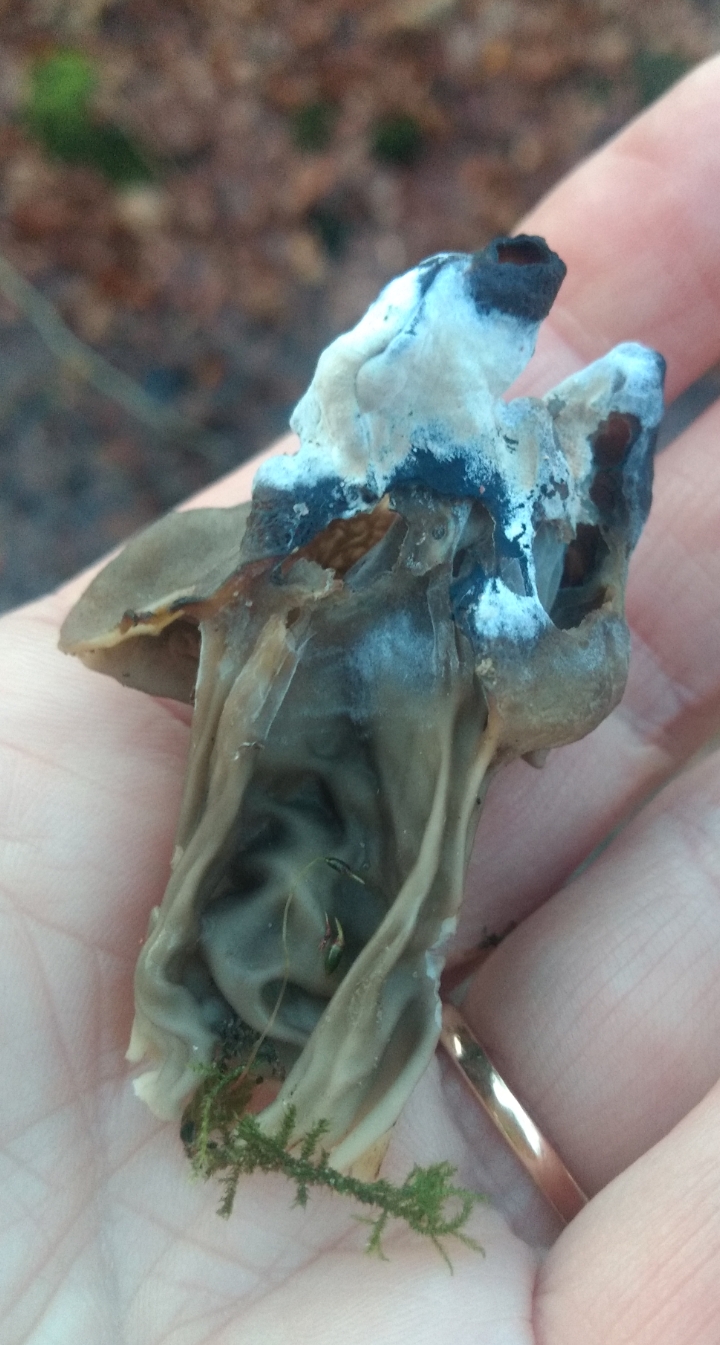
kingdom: Fungi
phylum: Ascomycota
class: Pezizomycetes
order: Pezizales
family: Helvellaceae
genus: Helvella
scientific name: Helvella lacunosa
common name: grubet foldhat
